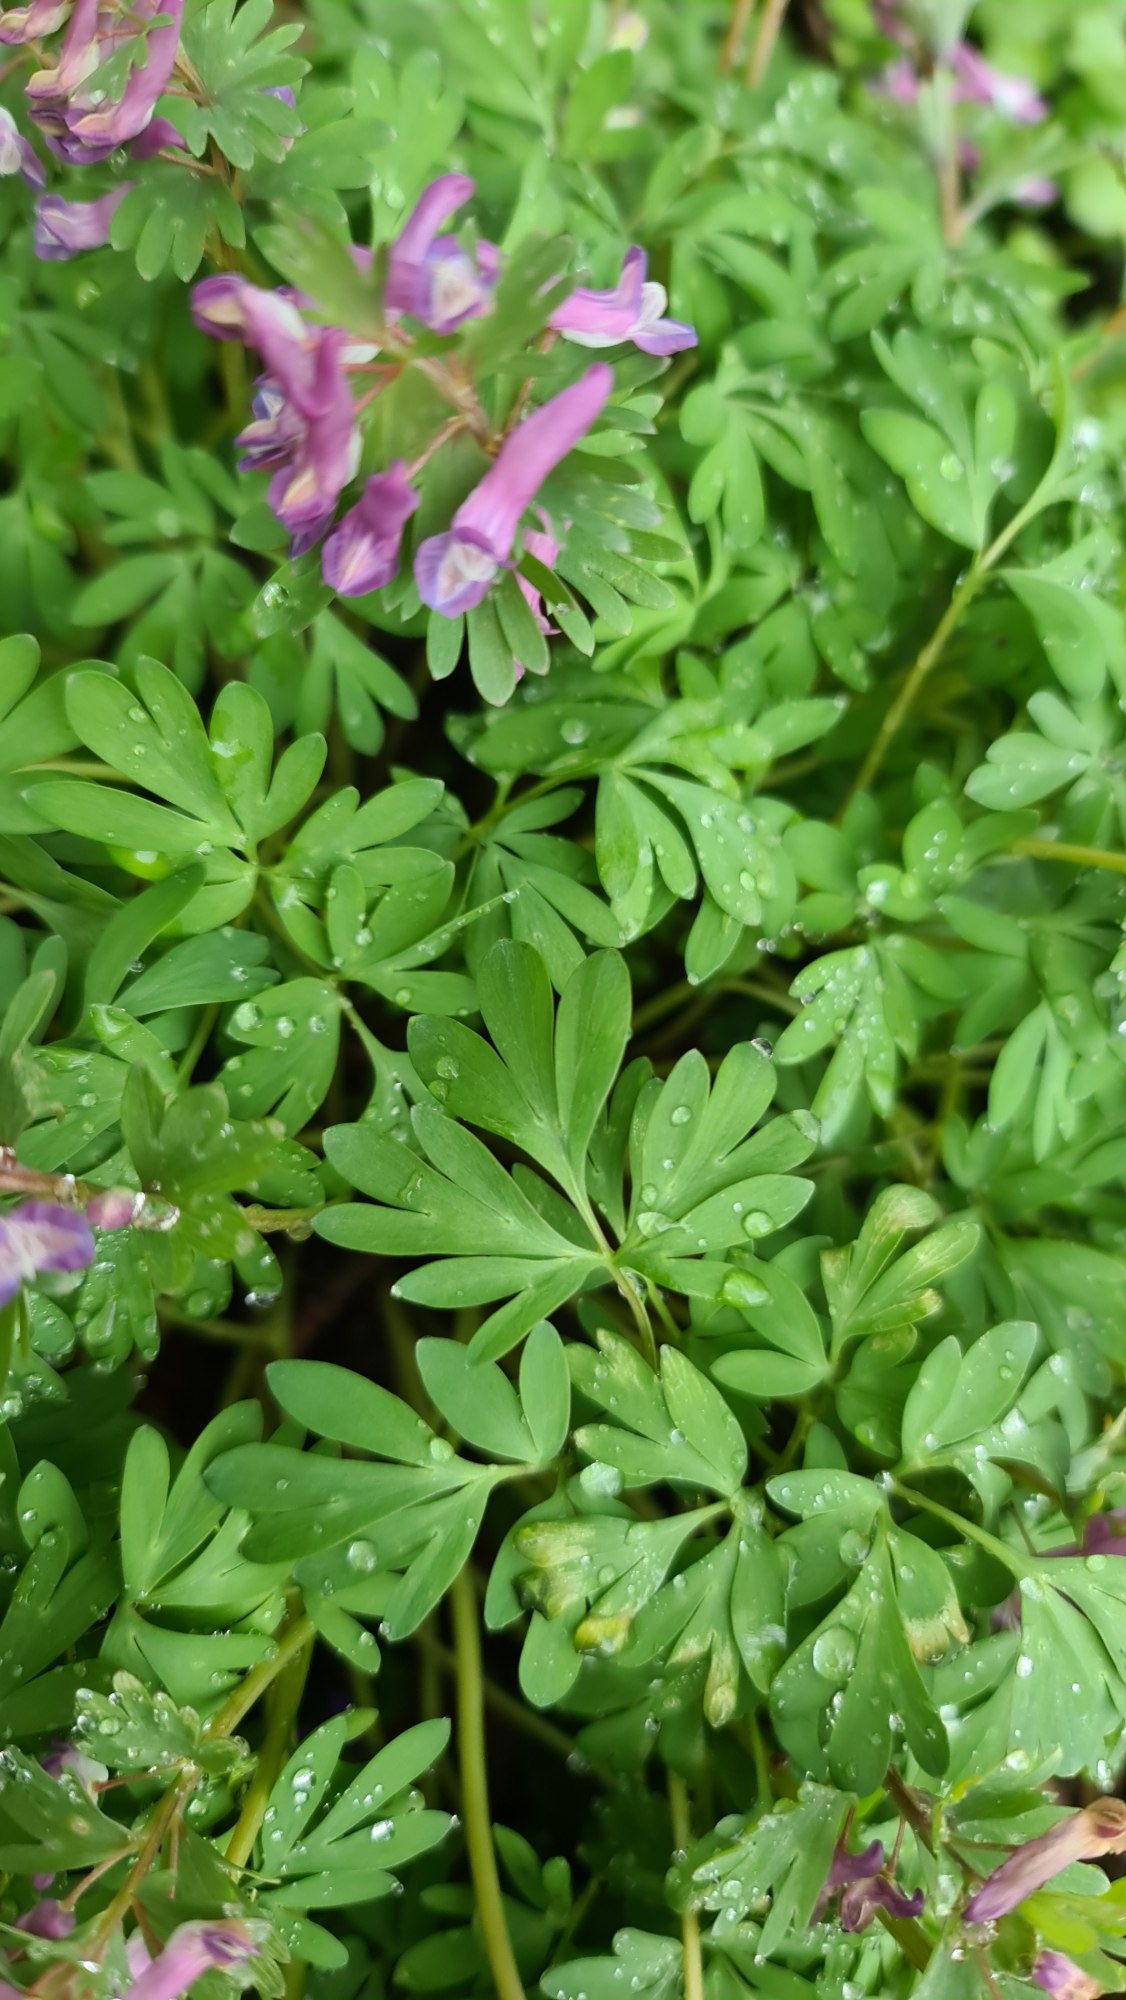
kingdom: Plantae
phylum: Tracheophyta
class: Magnoliopsida
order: Ranunculales
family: Papaveraceae
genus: Corydalis
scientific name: Corydalis solida
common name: Langstilket lærkespore
